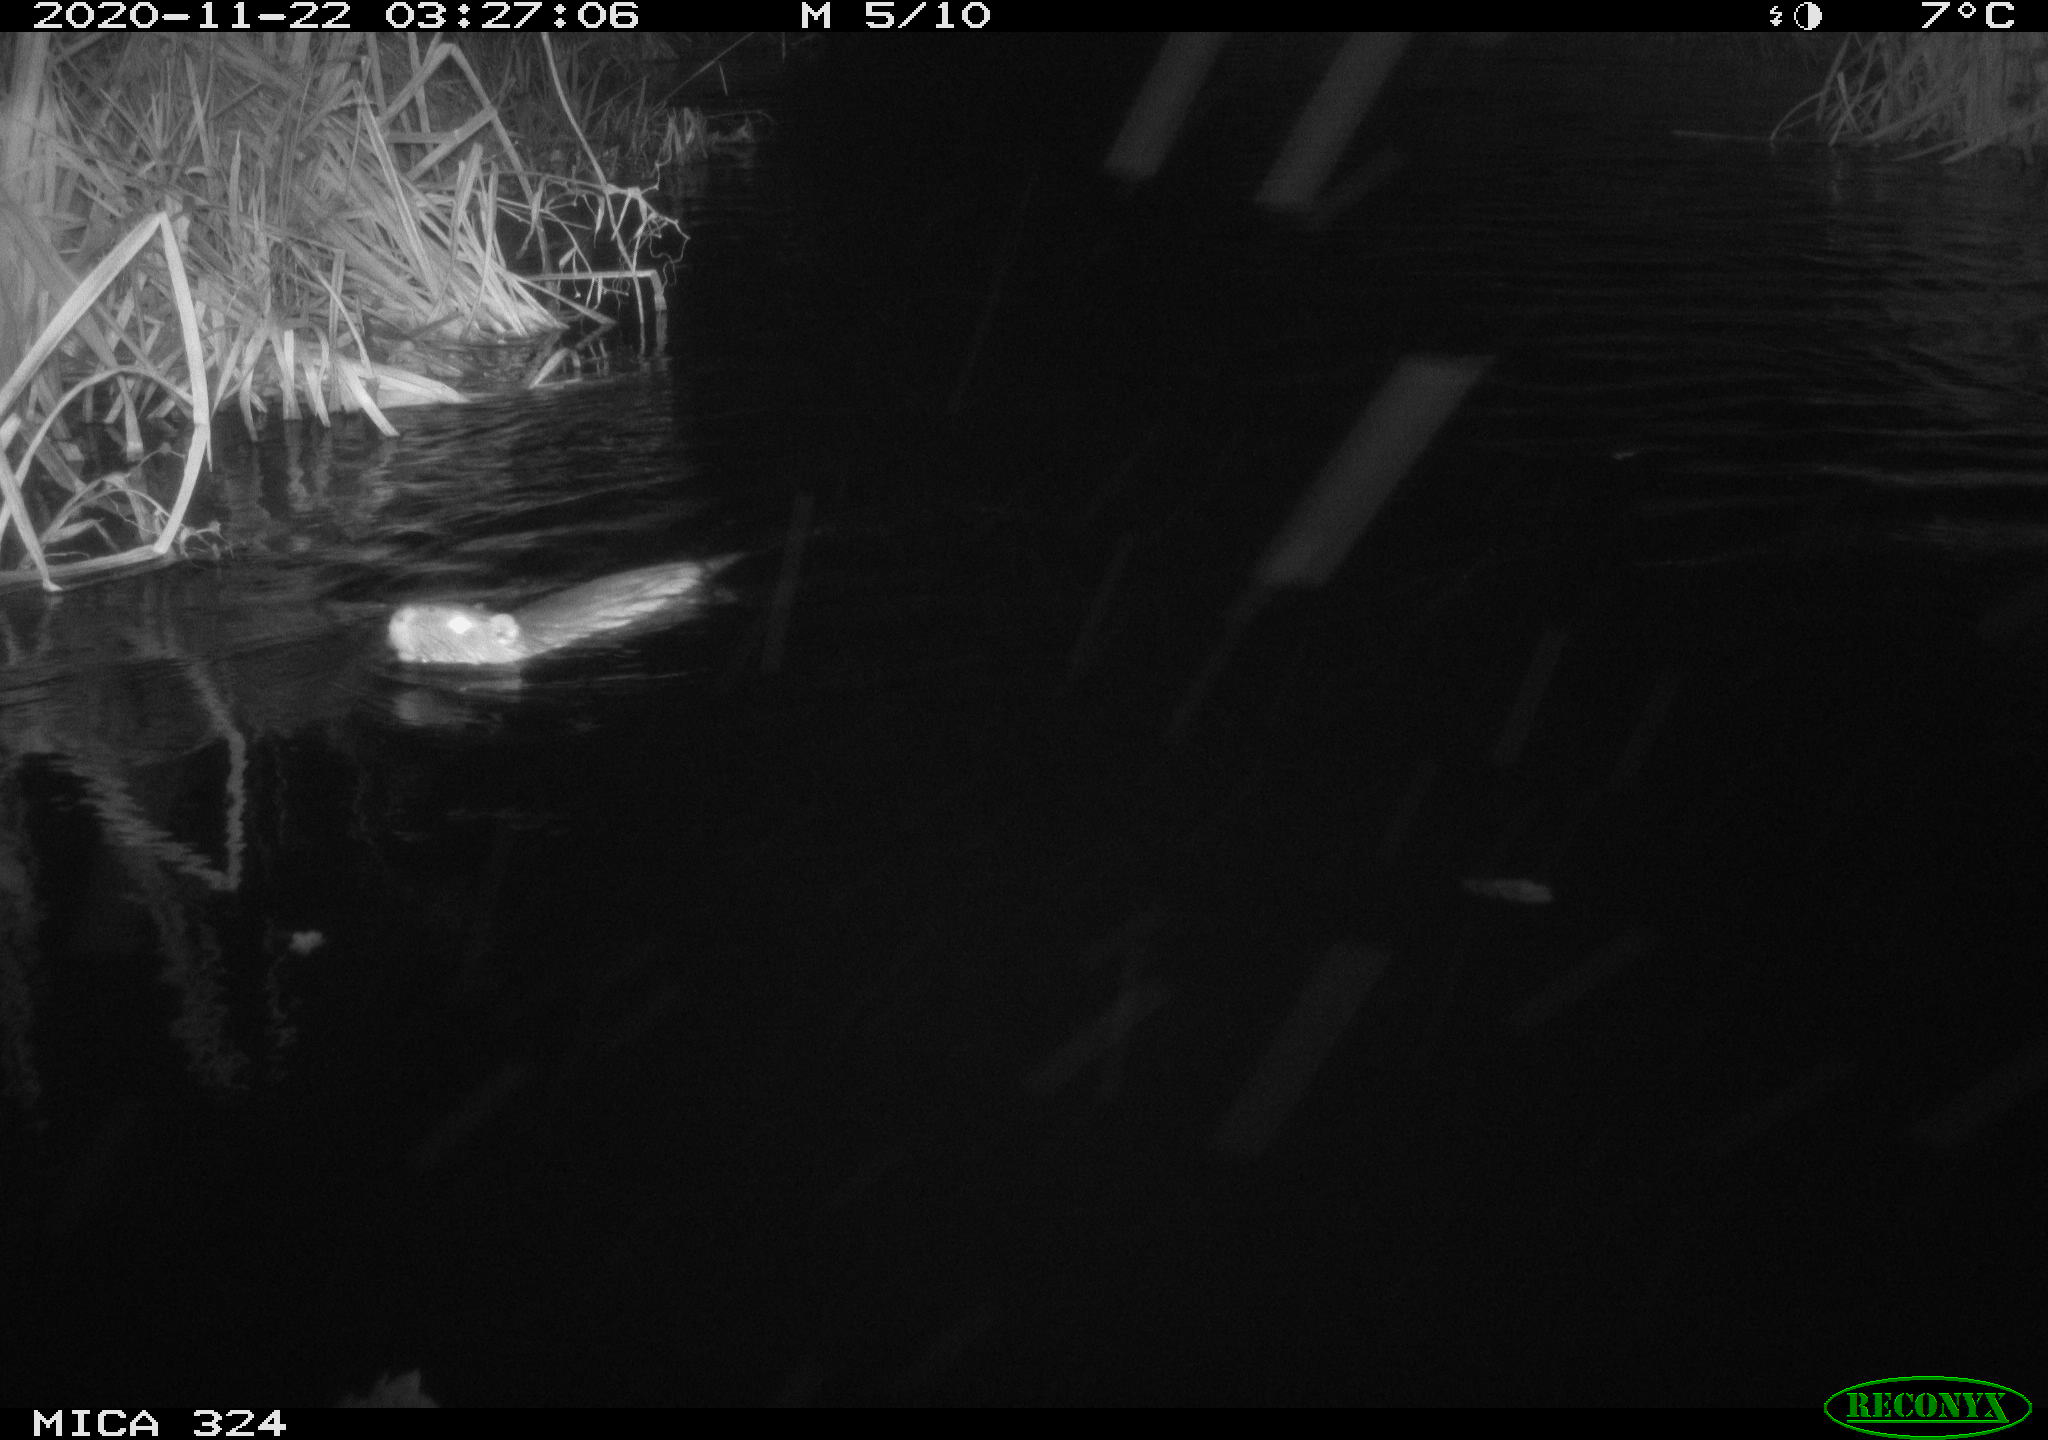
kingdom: Animalia
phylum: Chordata
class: Mammalia
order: Rodentia
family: Myocastoridae
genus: Myocastor
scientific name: Myocastor coypus
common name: Coypu
